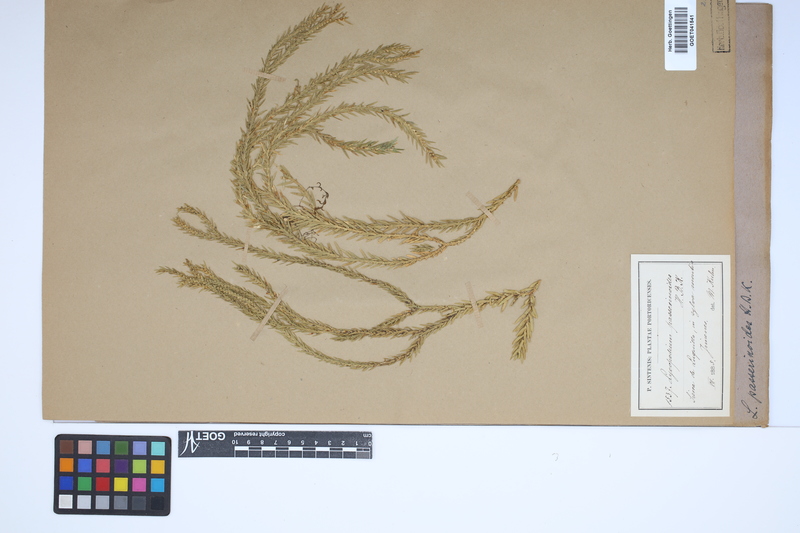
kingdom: Plantae
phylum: Tracheophyta
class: Lycopodiopsida
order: Lycopodiales
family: Lycopodiaceae
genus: Phlegmariurus
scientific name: Phlegmariurus taxifolius
